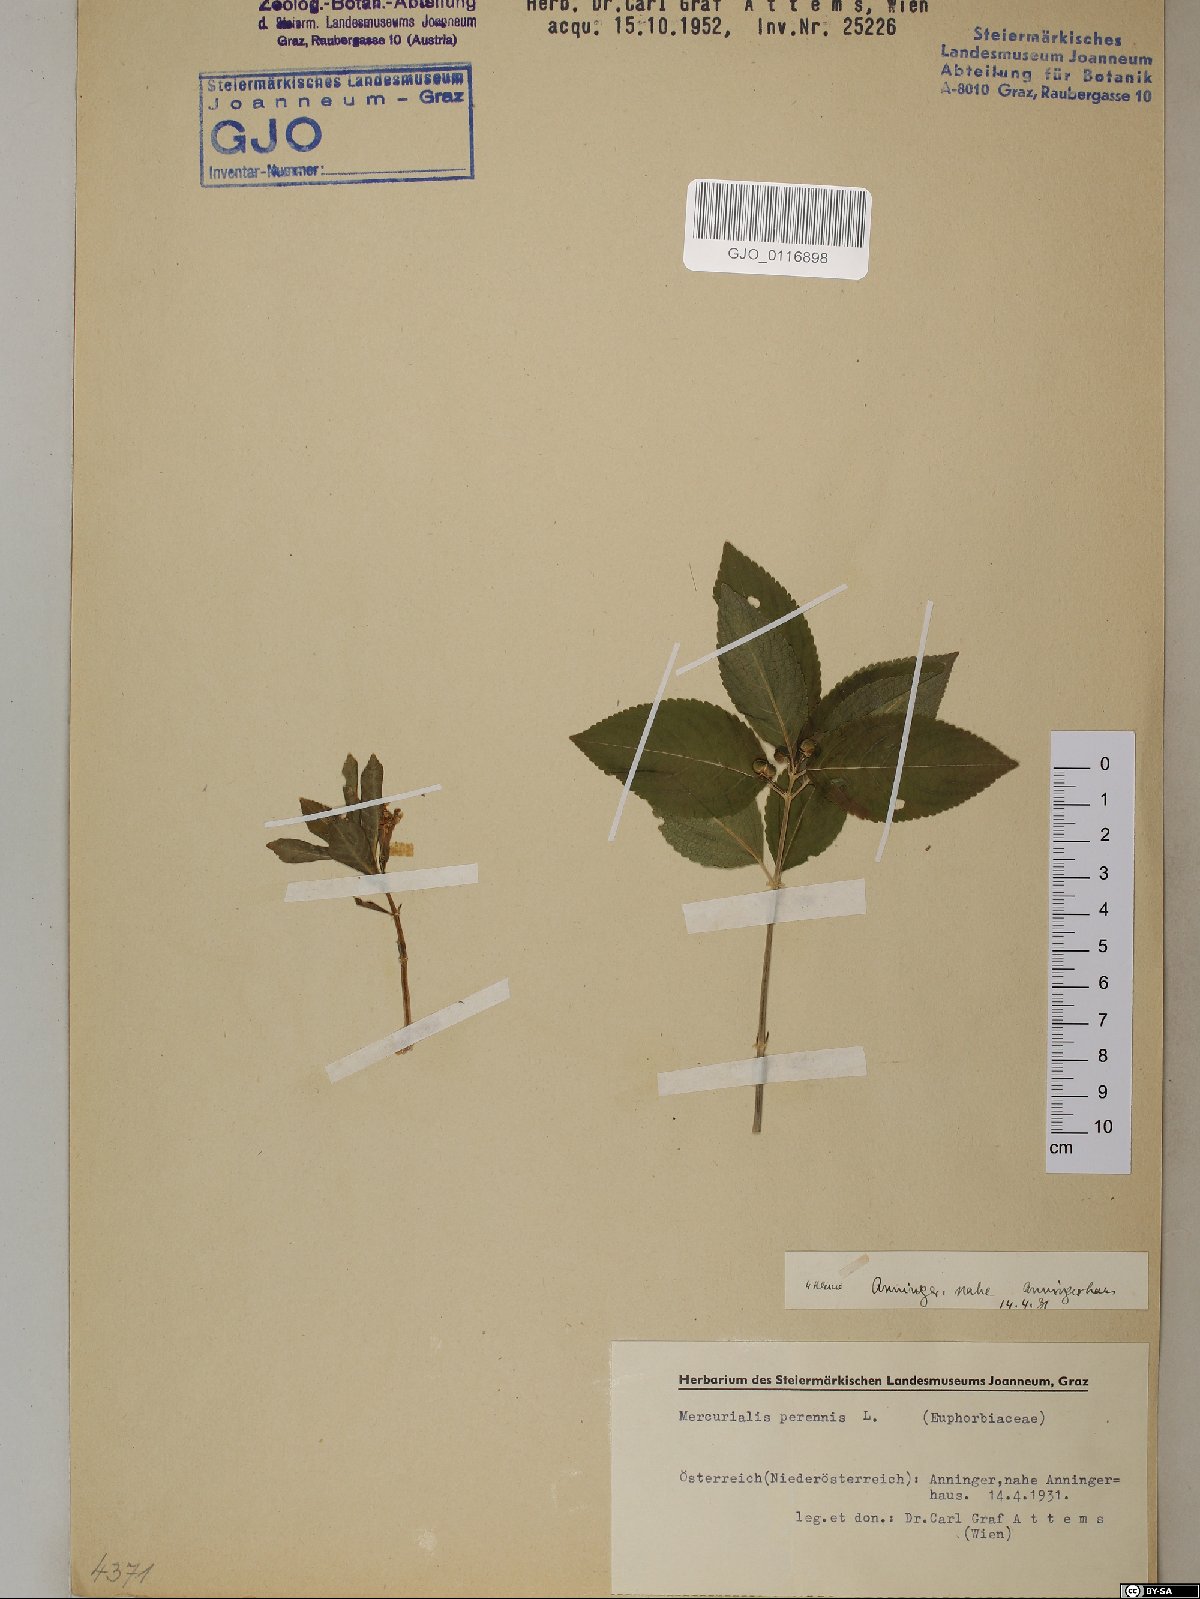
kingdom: Plantae
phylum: Tracheophyta
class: Magnoliopsida
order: Malpighiales
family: Euphorbiaceae
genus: Mercurialis
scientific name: Mercurialis perennis
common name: Dog mercury
